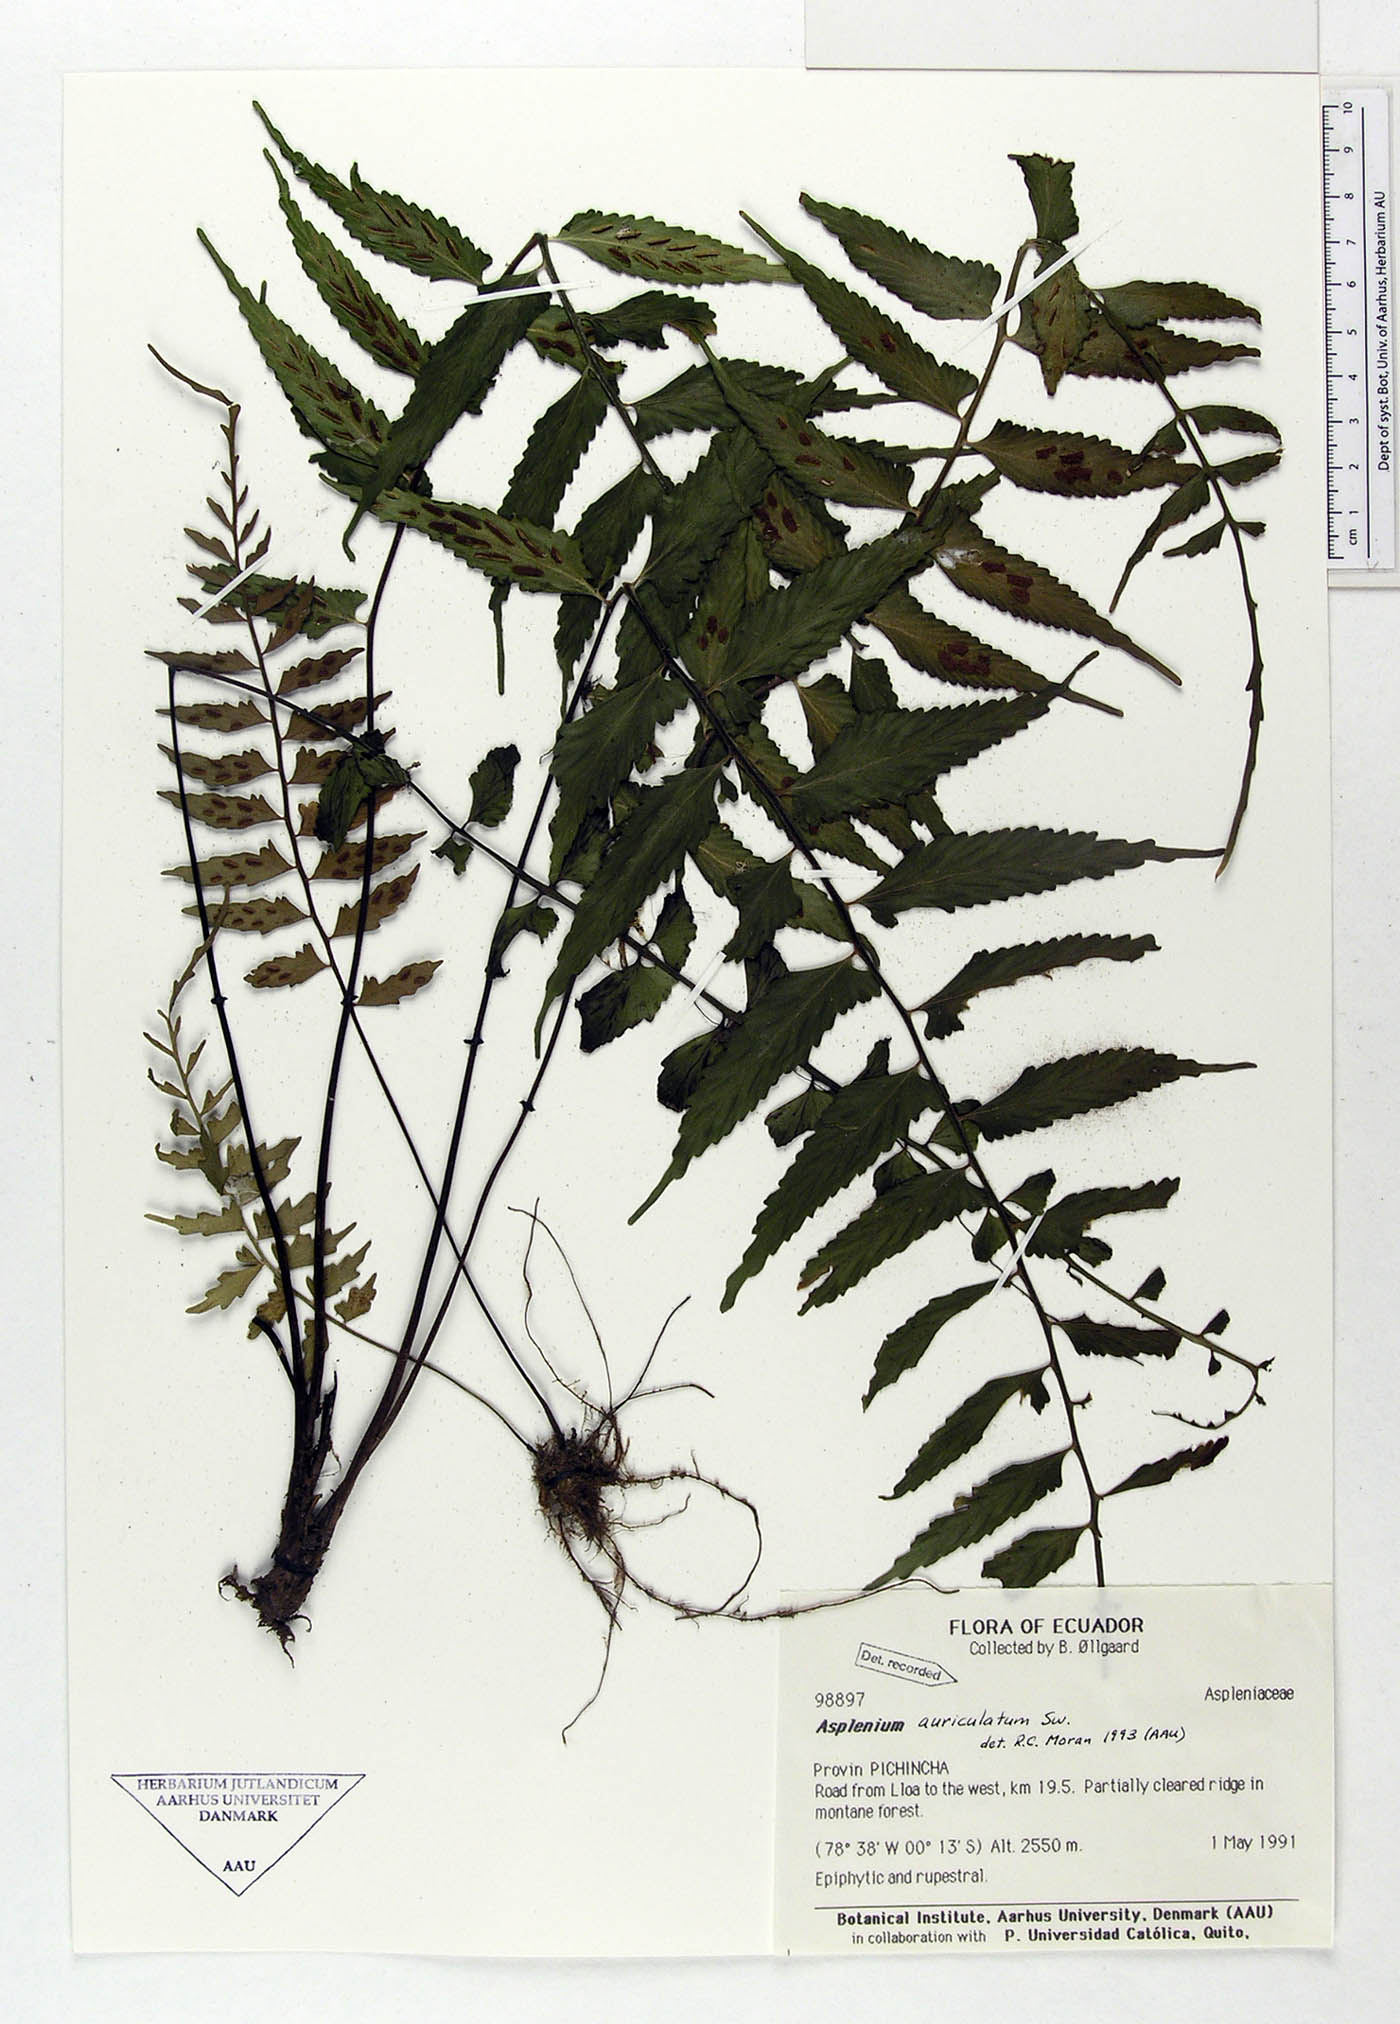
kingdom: Plantae
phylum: Tracheophyta
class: Polypodiopsida
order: Polypodiales
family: Aspleniaceae
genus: Asplenium
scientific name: Asplenium auriculatum
